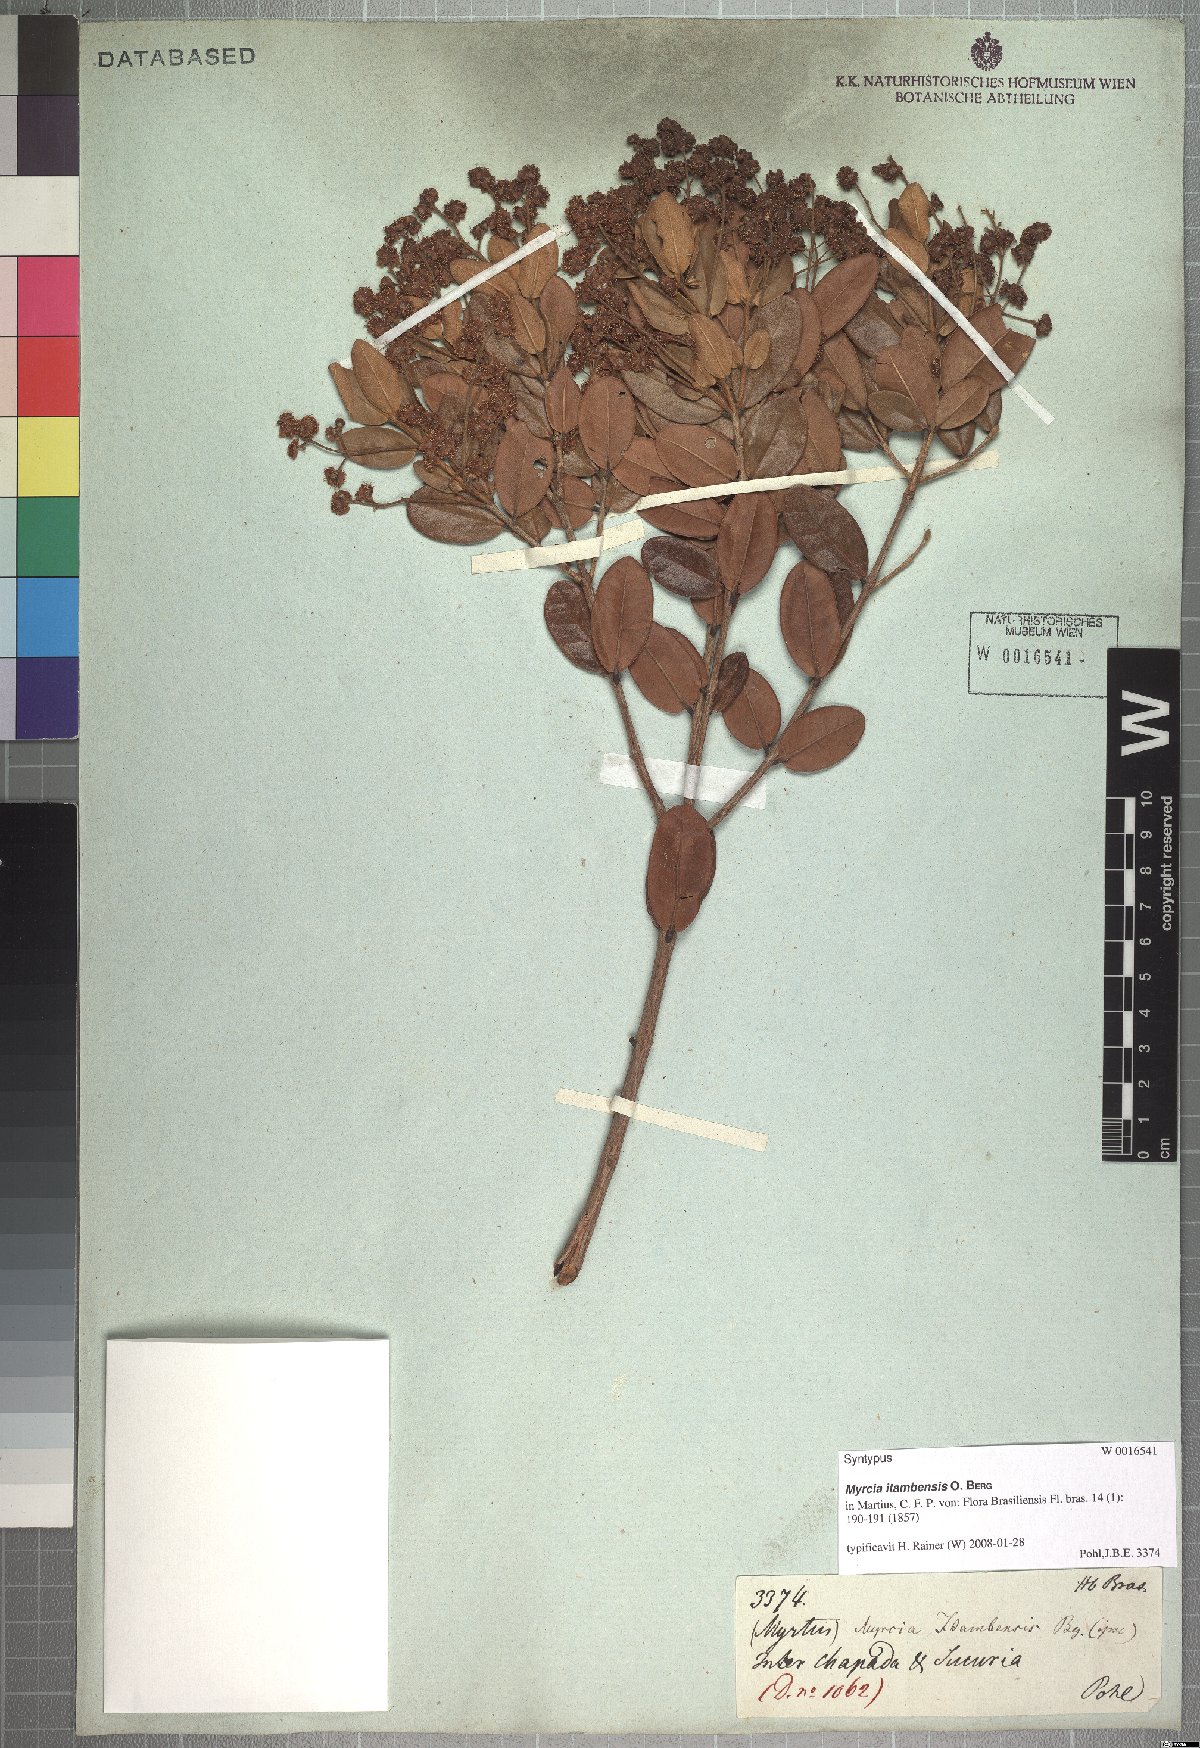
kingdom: Plantae
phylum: Tracheophyta
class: Magnoliopsida
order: Myrtales
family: Myrtaceae
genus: Myrcia
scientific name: Myrcia retorta
